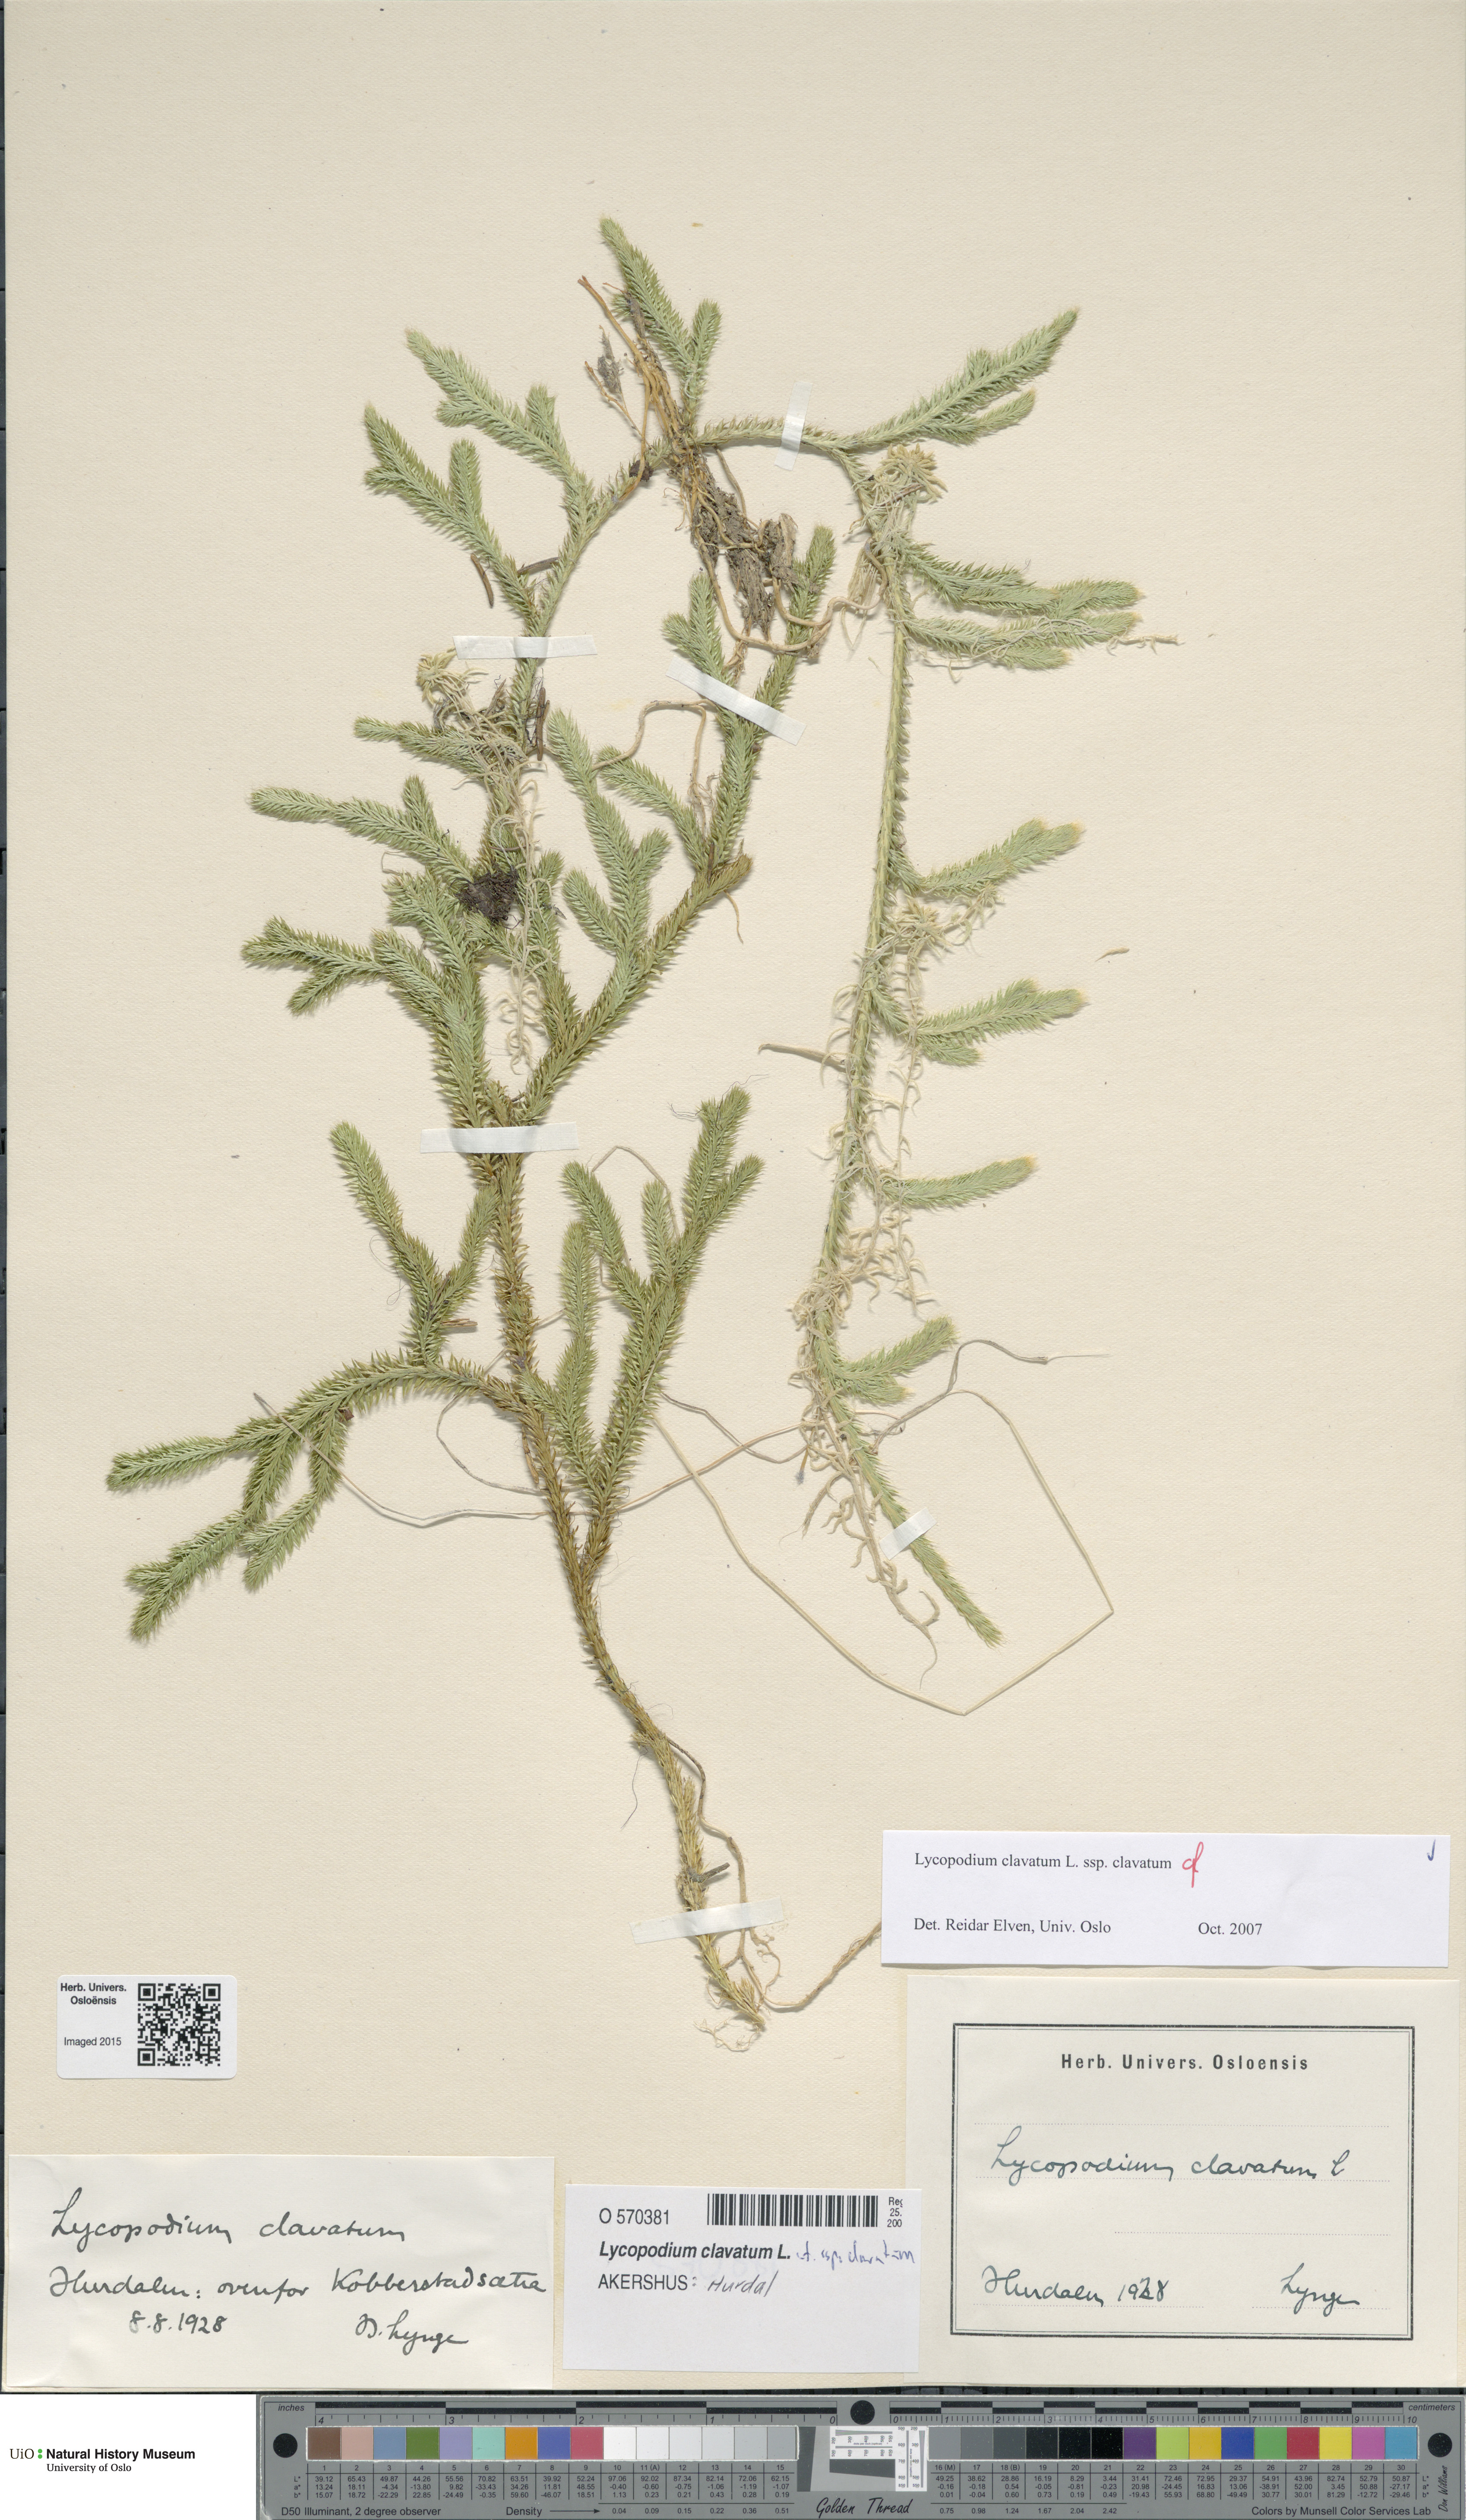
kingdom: Plantae
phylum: Tracheophyta
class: Lycopodiopsida
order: Lycopodiales
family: Lycopodiaceae
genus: Lycopodium
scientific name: Lycopodium clavatum
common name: Stag's-horn clubmoss
